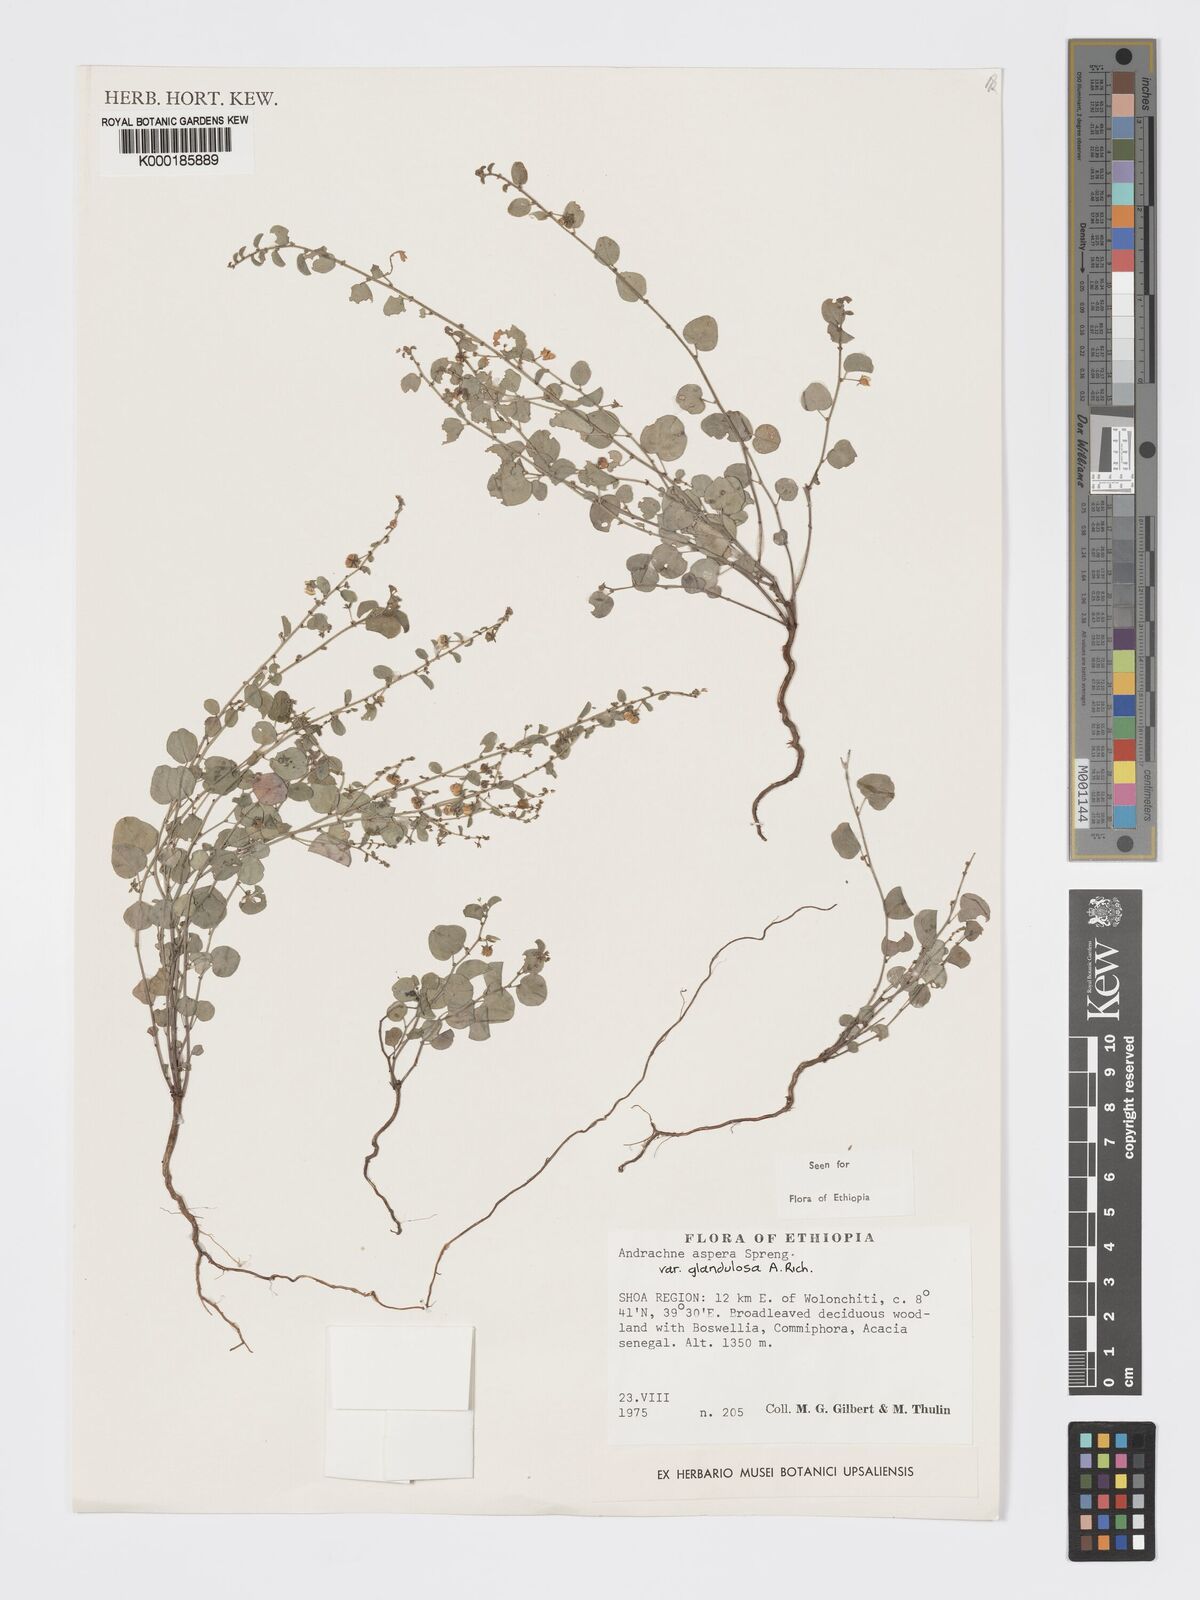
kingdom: Plantae
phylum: Tracheophyta
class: Magnoliopsida
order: Malpighiales
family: Phyllanthaceae
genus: Andrachne
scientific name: Andrachne aspera
